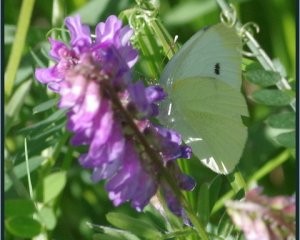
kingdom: Animalia
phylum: Arthropoda
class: Insecta
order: Lepidoptera
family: Pieridae
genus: Pieris
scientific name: Pieris rapae
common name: Cabbage White
